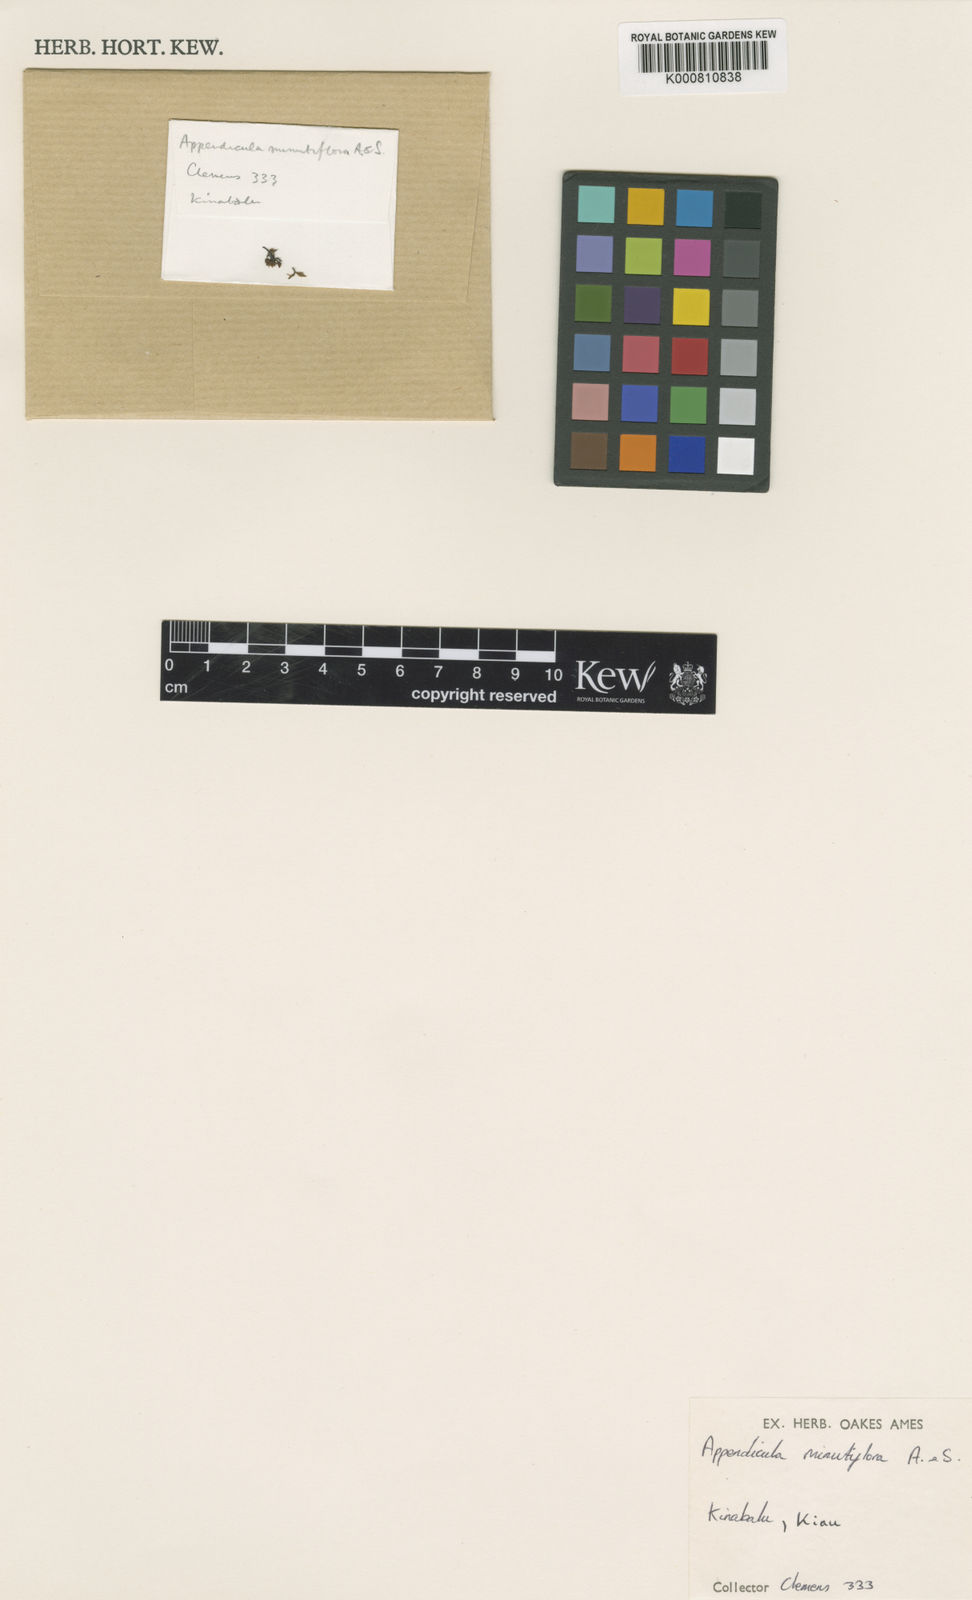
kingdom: Plantae
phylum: Tracheophyta
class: Liliopsida
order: Asparagales
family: Orchidaceae
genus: Appendicula
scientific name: Appendicula reflexa
